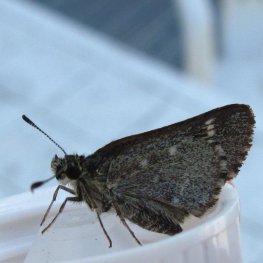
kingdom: Animalia
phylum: Arthropoda
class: Insecta
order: Lepidoptera
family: Hesperiidae
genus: Mastor
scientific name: Mastor hegon
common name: Pepper and Salt Skipper
